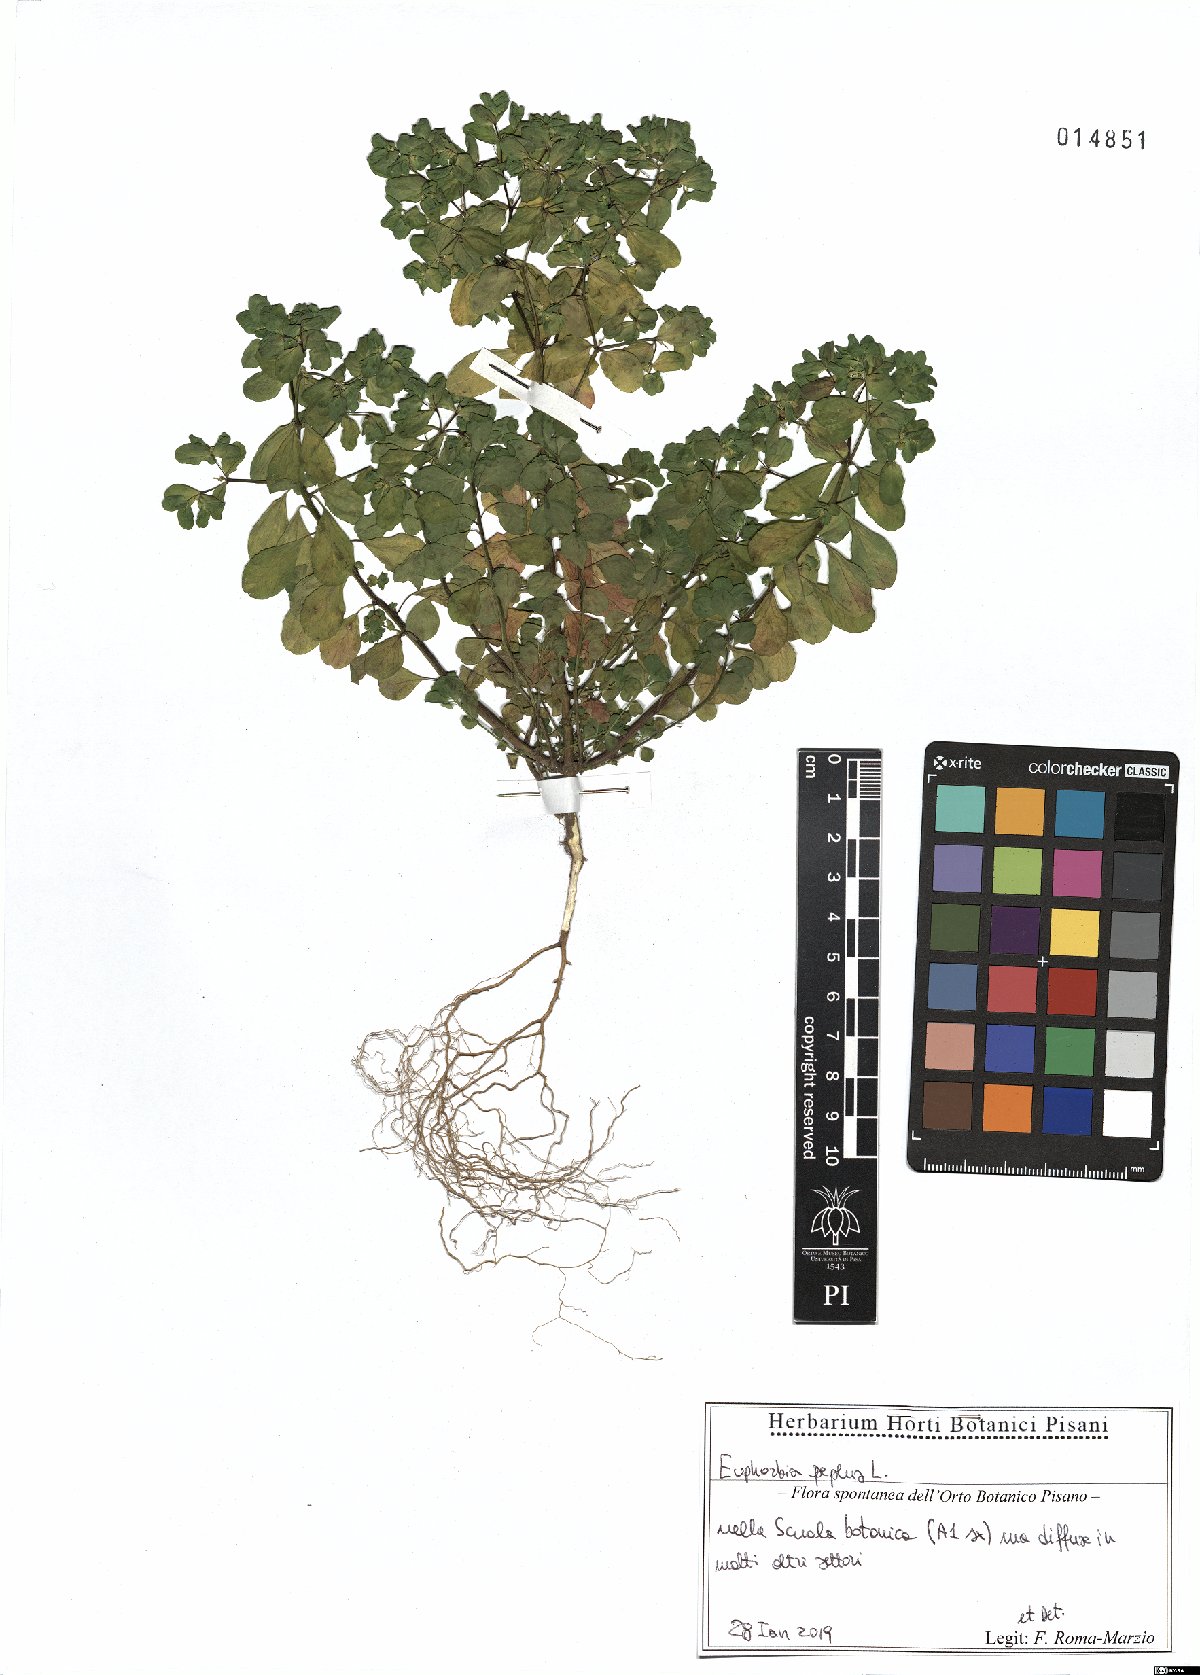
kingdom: Plantae
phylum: Tracheophyta
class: Magnoliopsida
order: Malpighiales
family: Euphorbiaceae
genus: Euphorbia
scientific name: Euphorbia peplus
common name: Petty spurge
